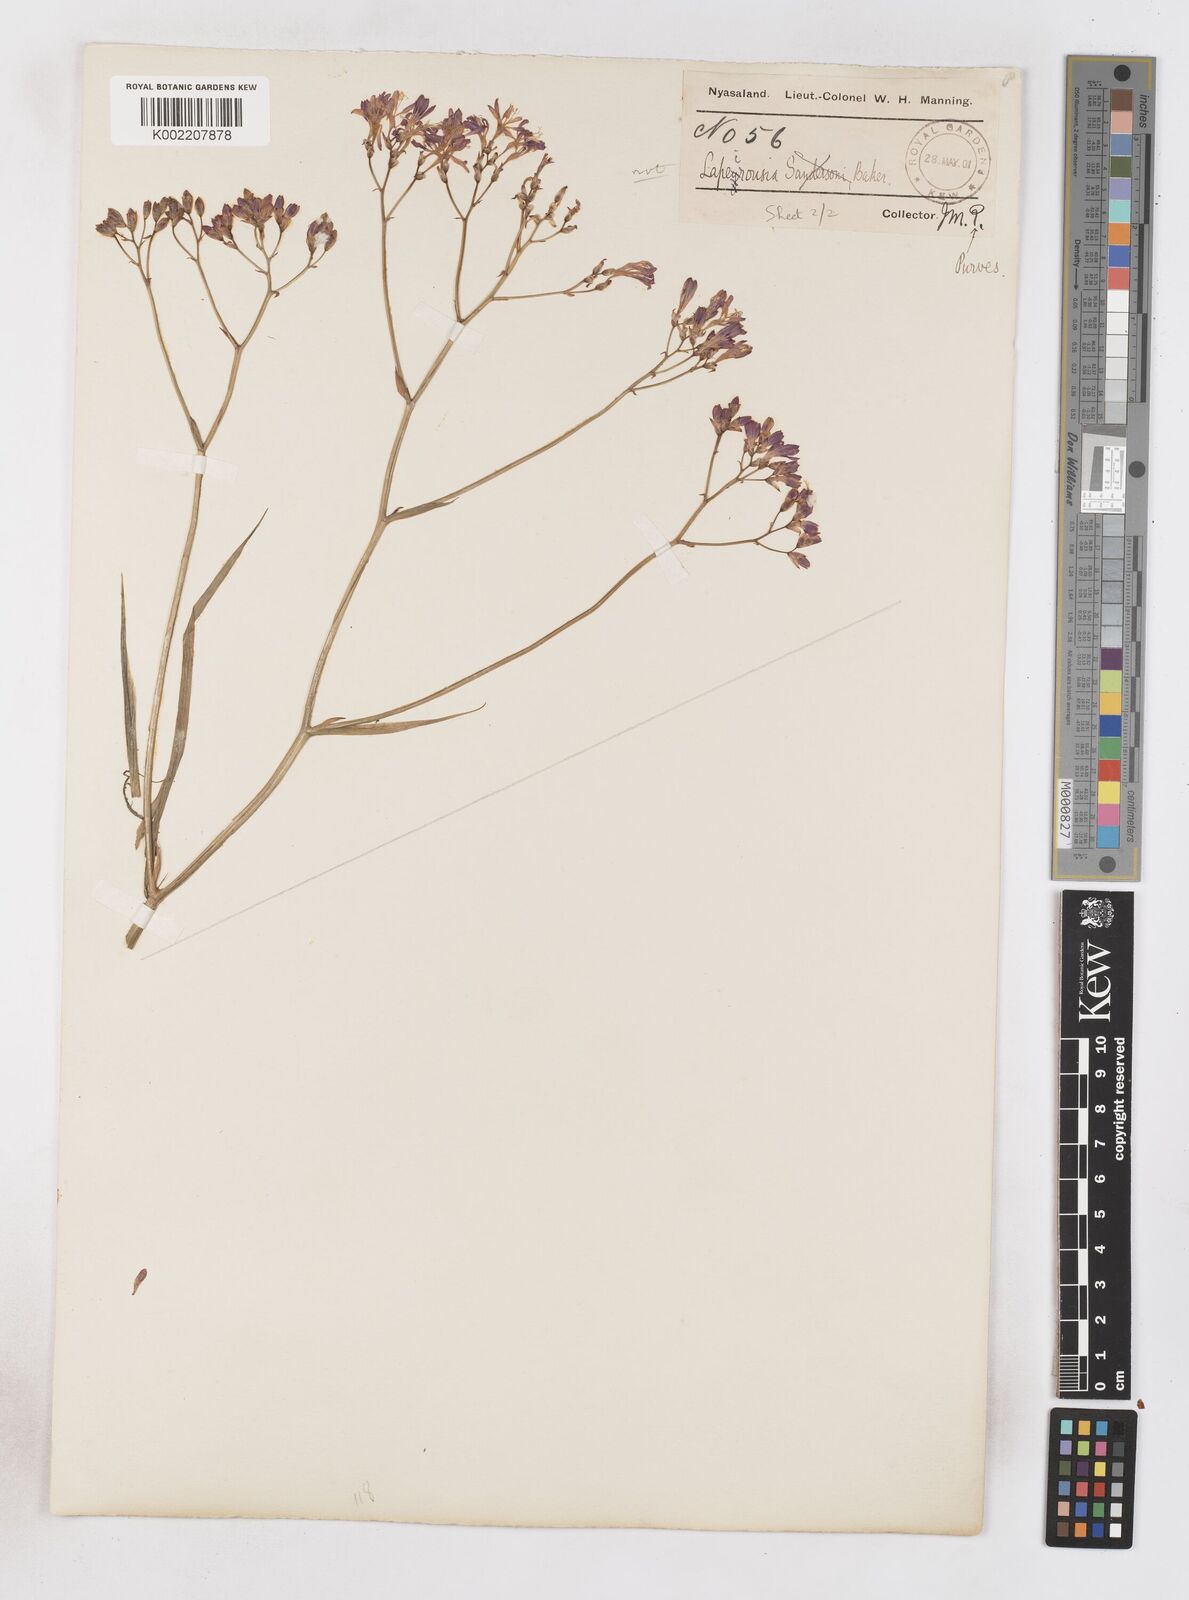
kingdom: Plantae
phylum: Tracheophyta
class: Liliopsida
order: Asparagales
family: Iridaceae
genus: Afrosolen
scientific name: Afrosolen erythranthus
